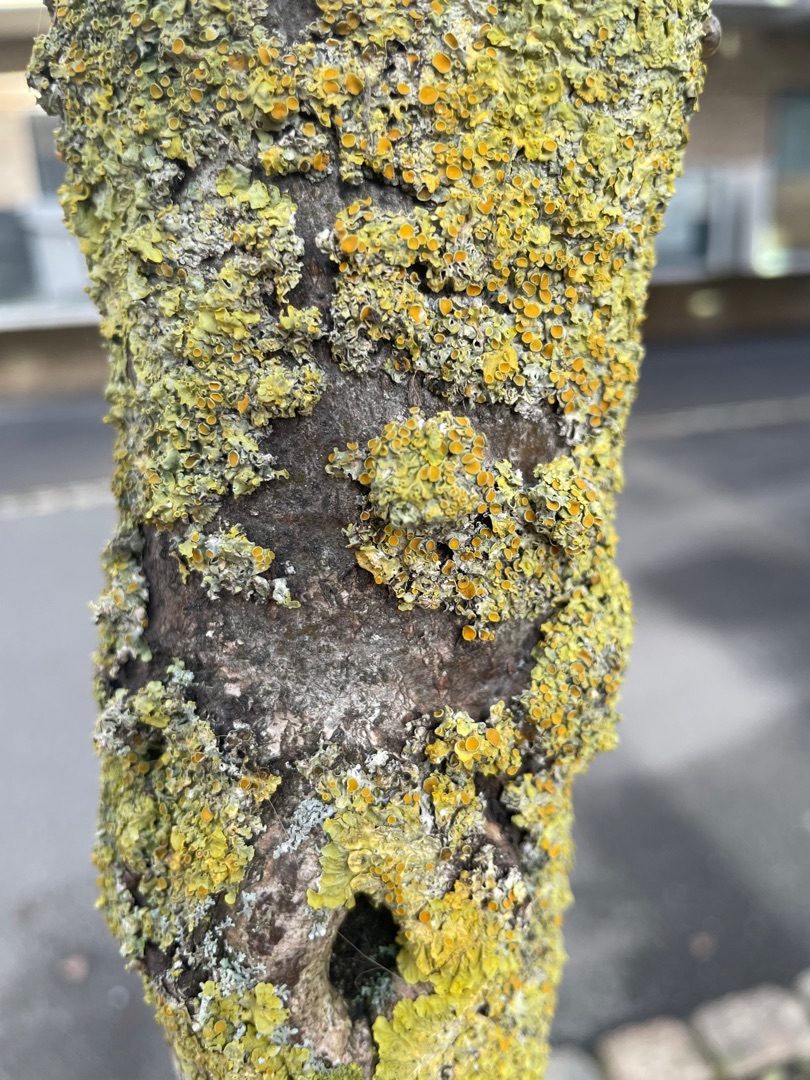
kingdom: Fungi
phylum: Ascomycota
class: Lecanoromycetes
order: Teloschistales
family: Teloschistaceae
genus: Xanthoria
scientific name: Xanthoria parietina
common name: Almindelig væggelav
